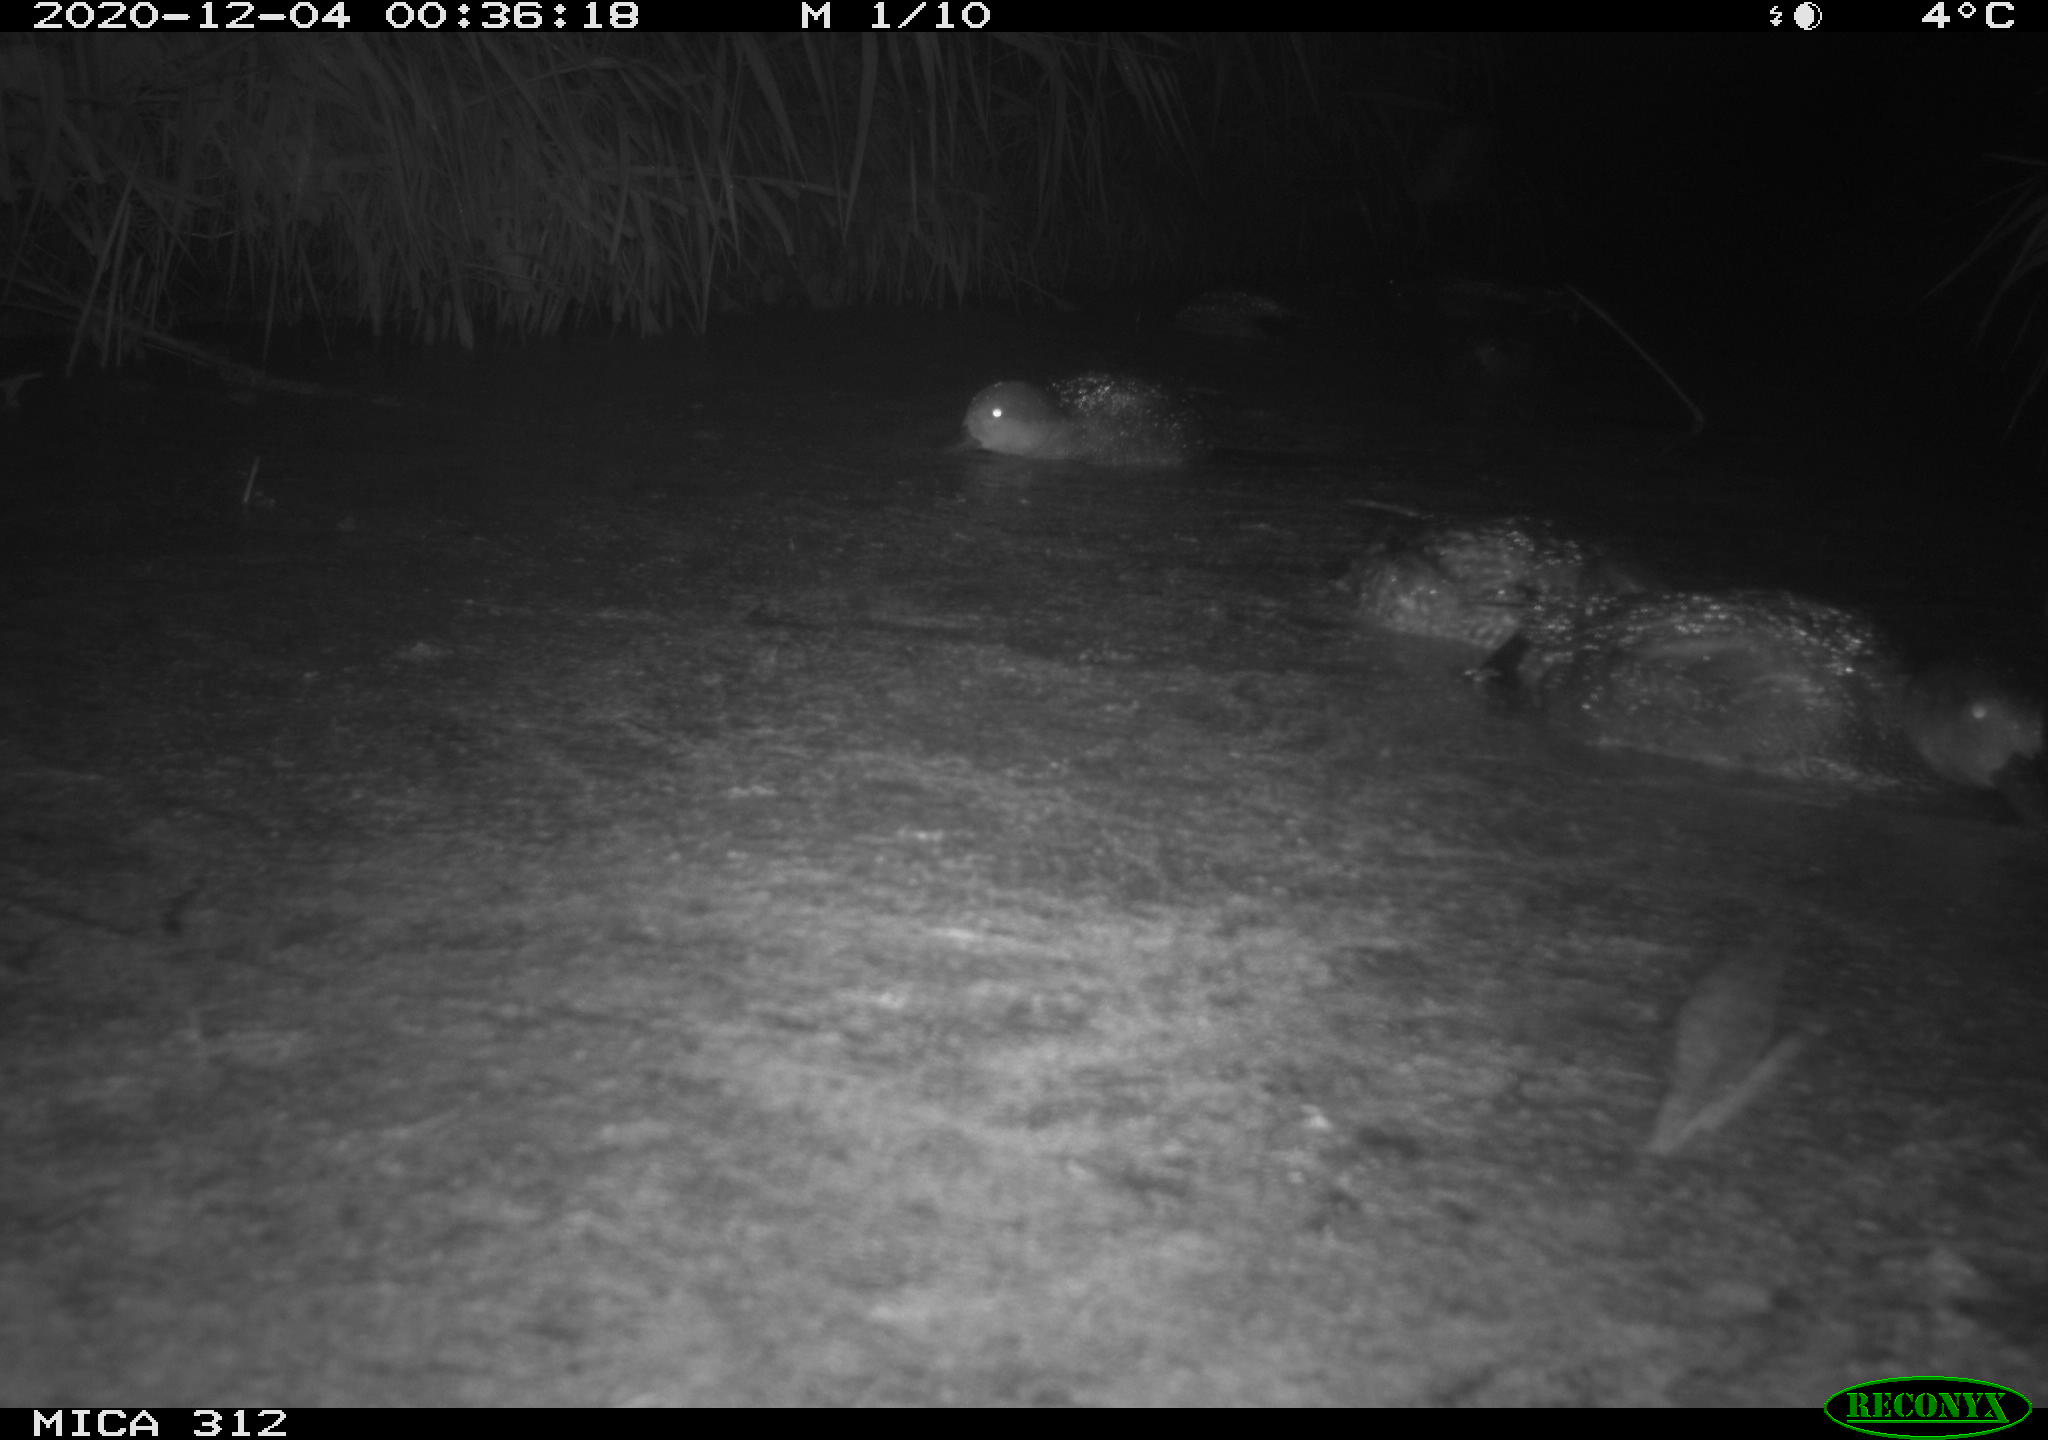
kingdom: Animalia
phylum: Chordata
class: Aves
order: Anseriformes
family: Anatidae
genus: Mareca
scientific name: Mareca strepera
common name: Gadwall
